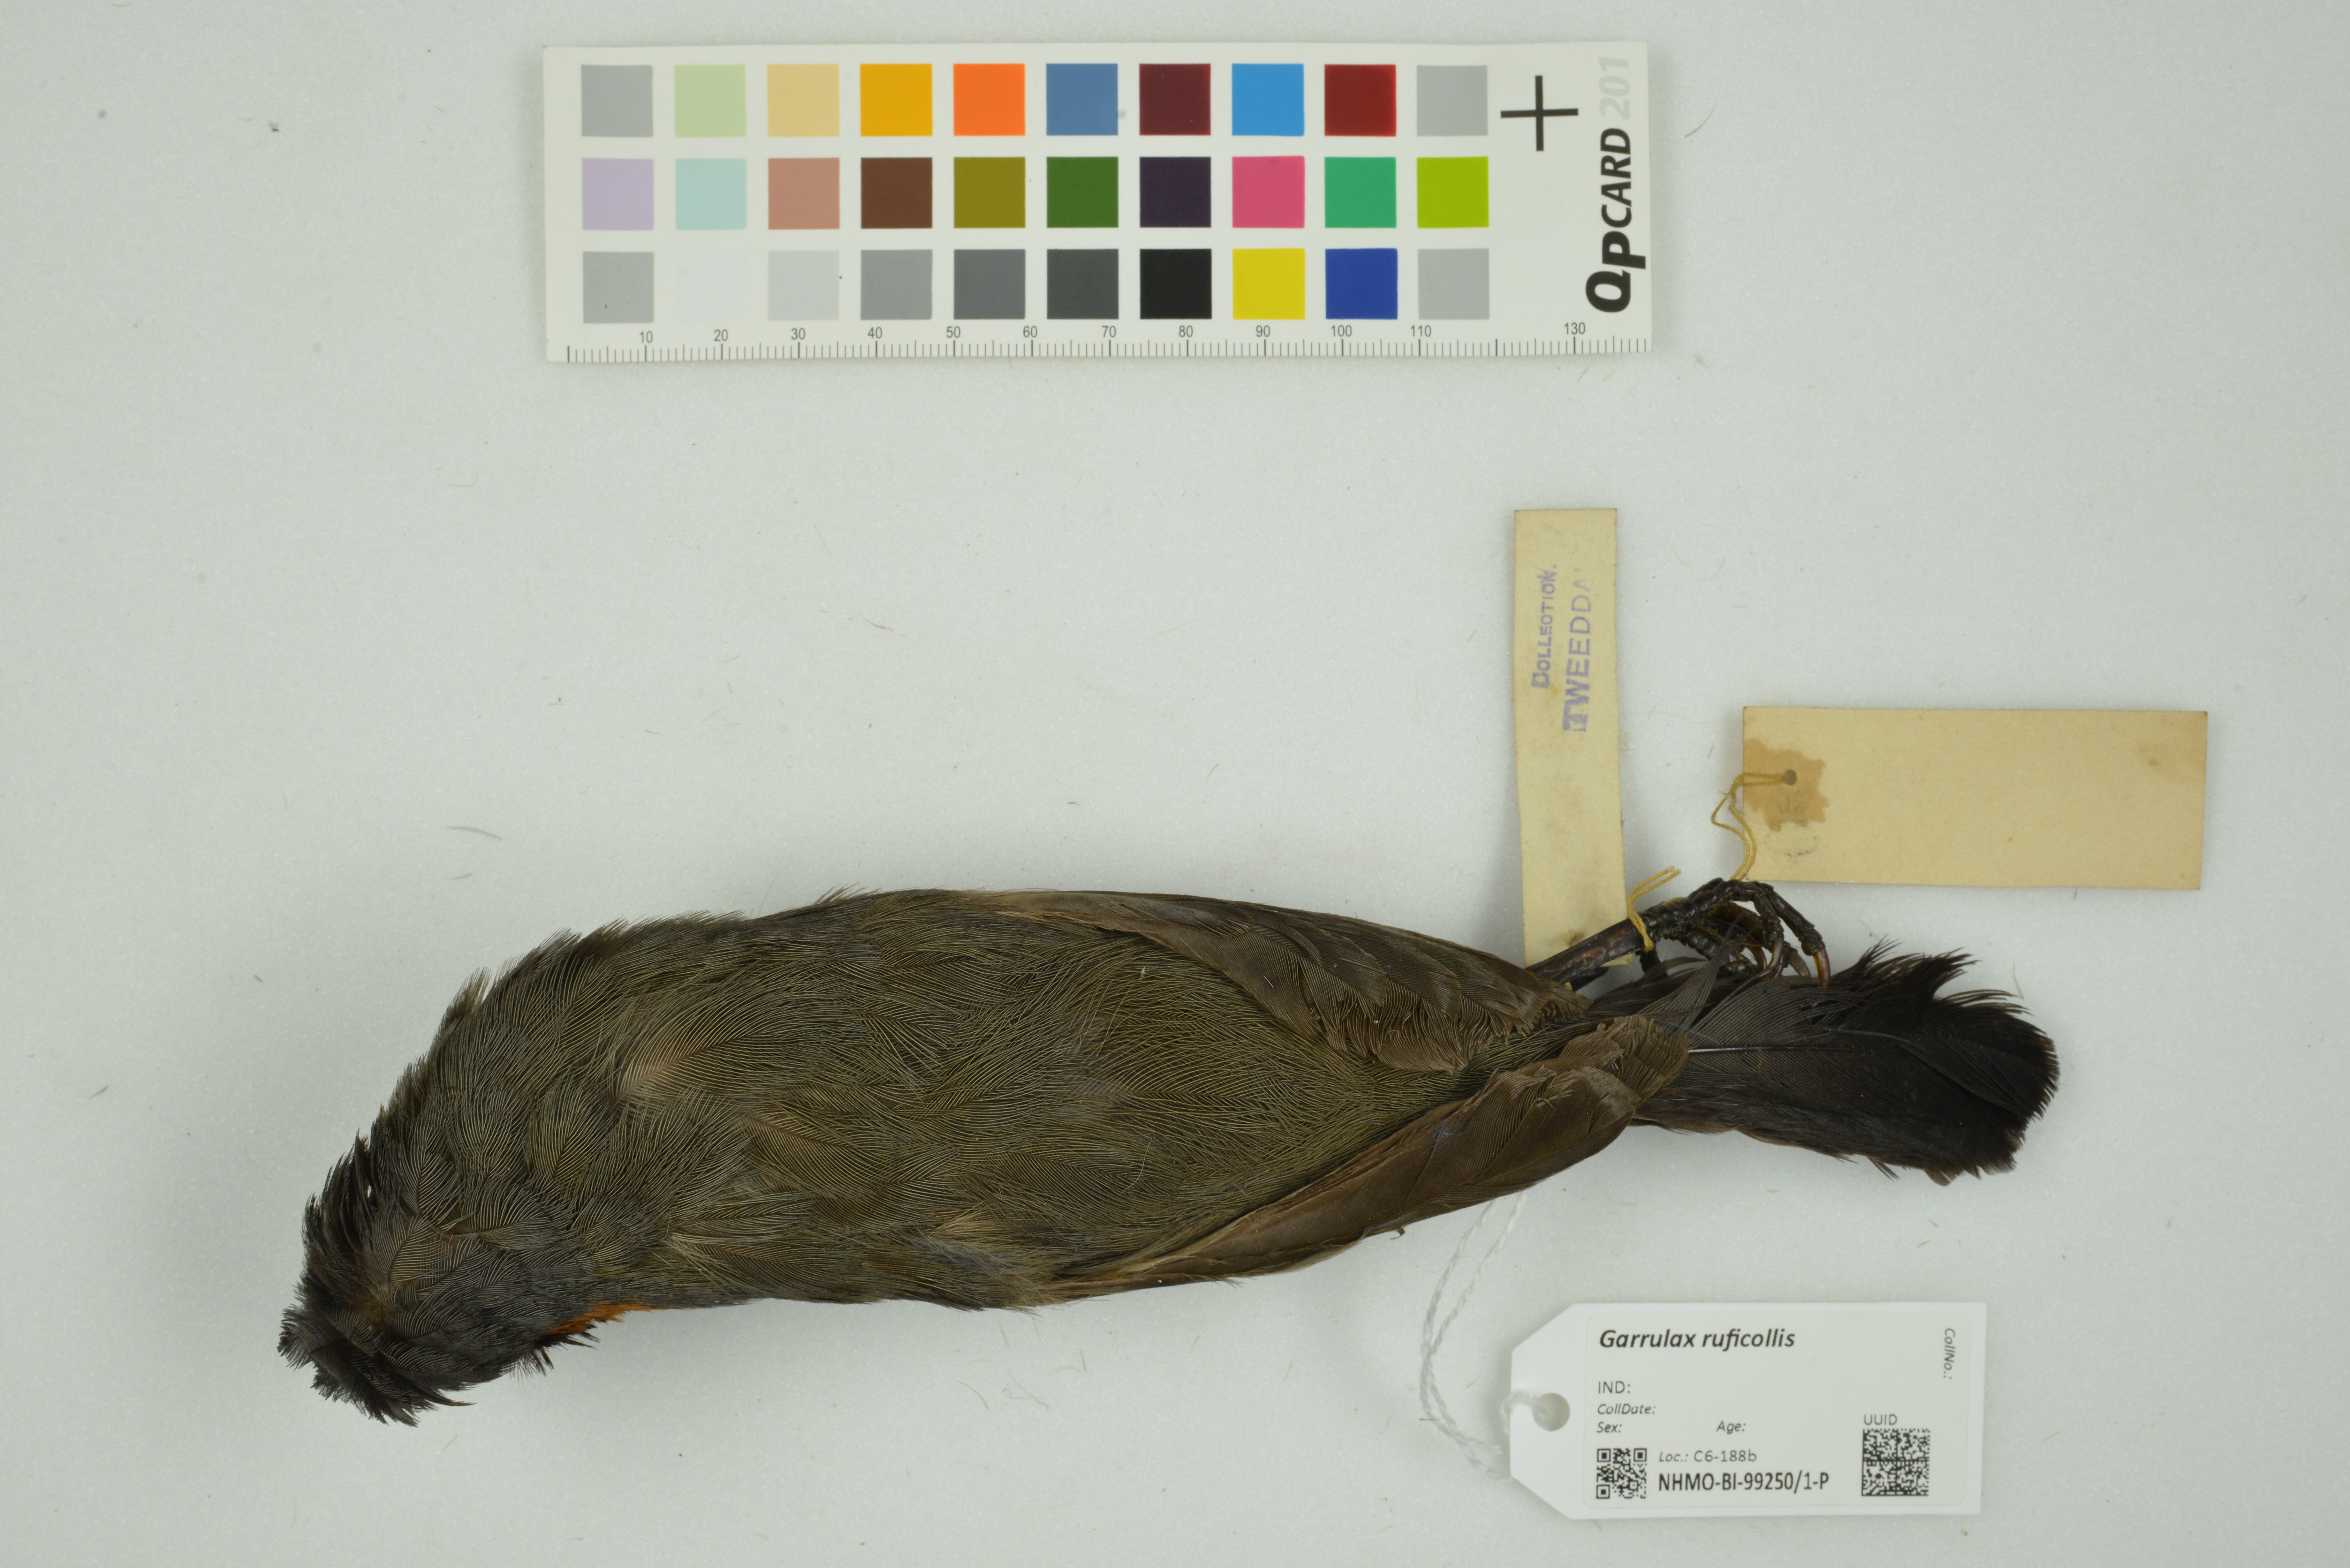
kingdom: Animalia
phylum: Chordata
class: Aves
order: Passeriformes
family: Leiothrichidae
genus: Garrulax
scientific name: Garrulax ruficollis
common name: Rufous-necked laughingthrush
